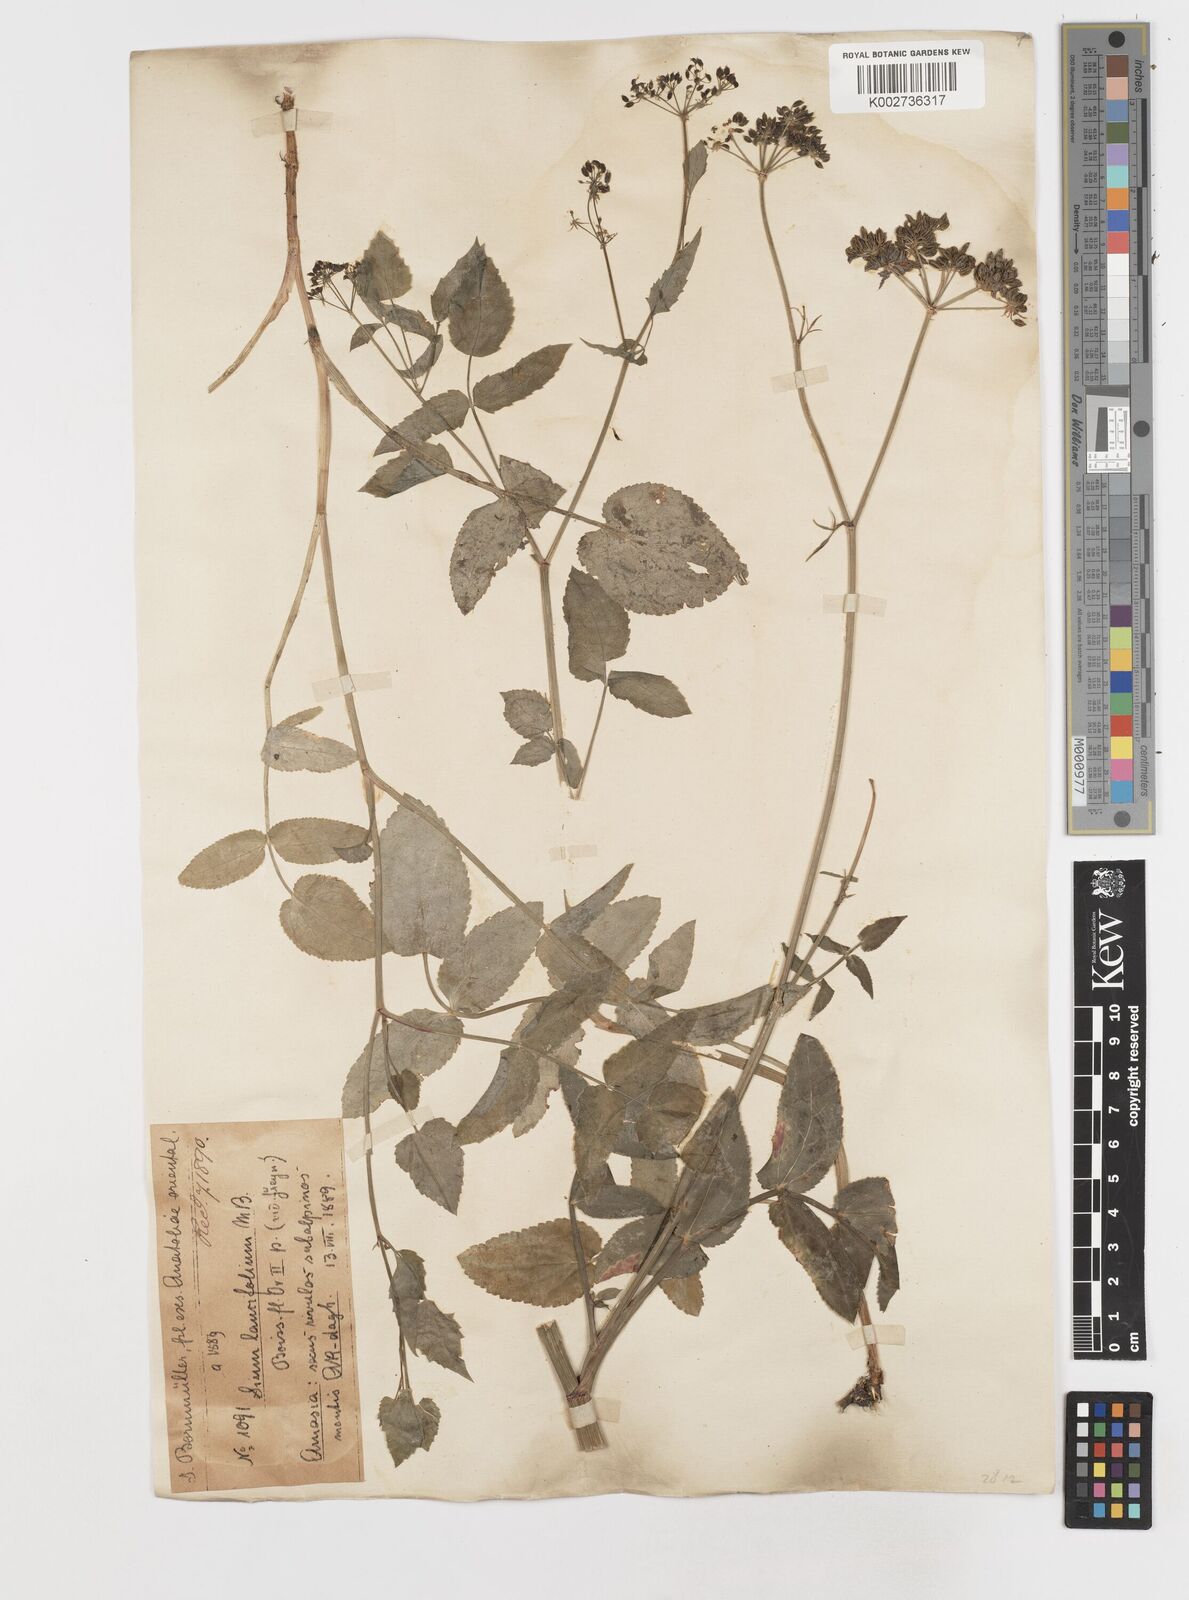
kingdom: Plantae
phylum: Tracheophyta
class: Magnoliopsida
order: Apiales
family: Apiaceae
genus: Sium
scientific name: Sium sisarum
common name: Skirret
